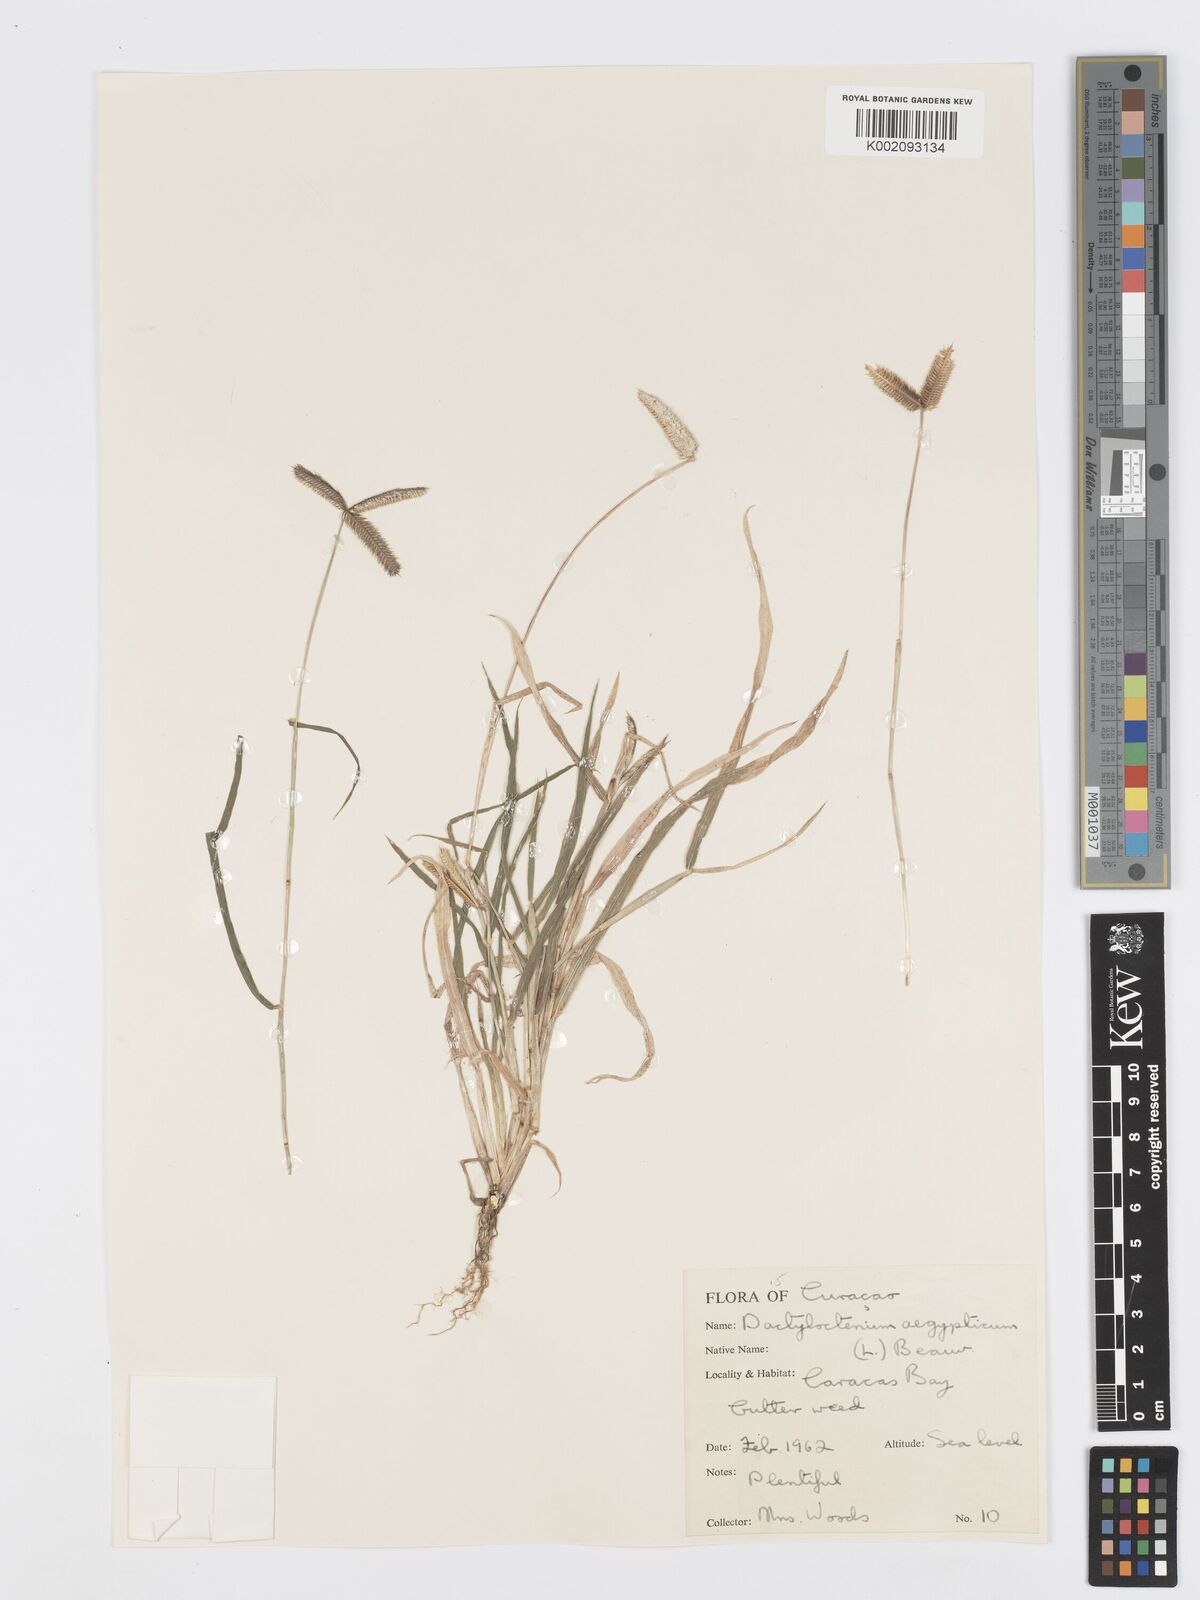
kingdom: Plantae
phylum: Tracheophyta
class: Liliopsida
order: Poales
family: Poaceae
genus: Dactyloctenium
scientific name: Dactyloctenium aegyptium
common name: Egyptian grass
